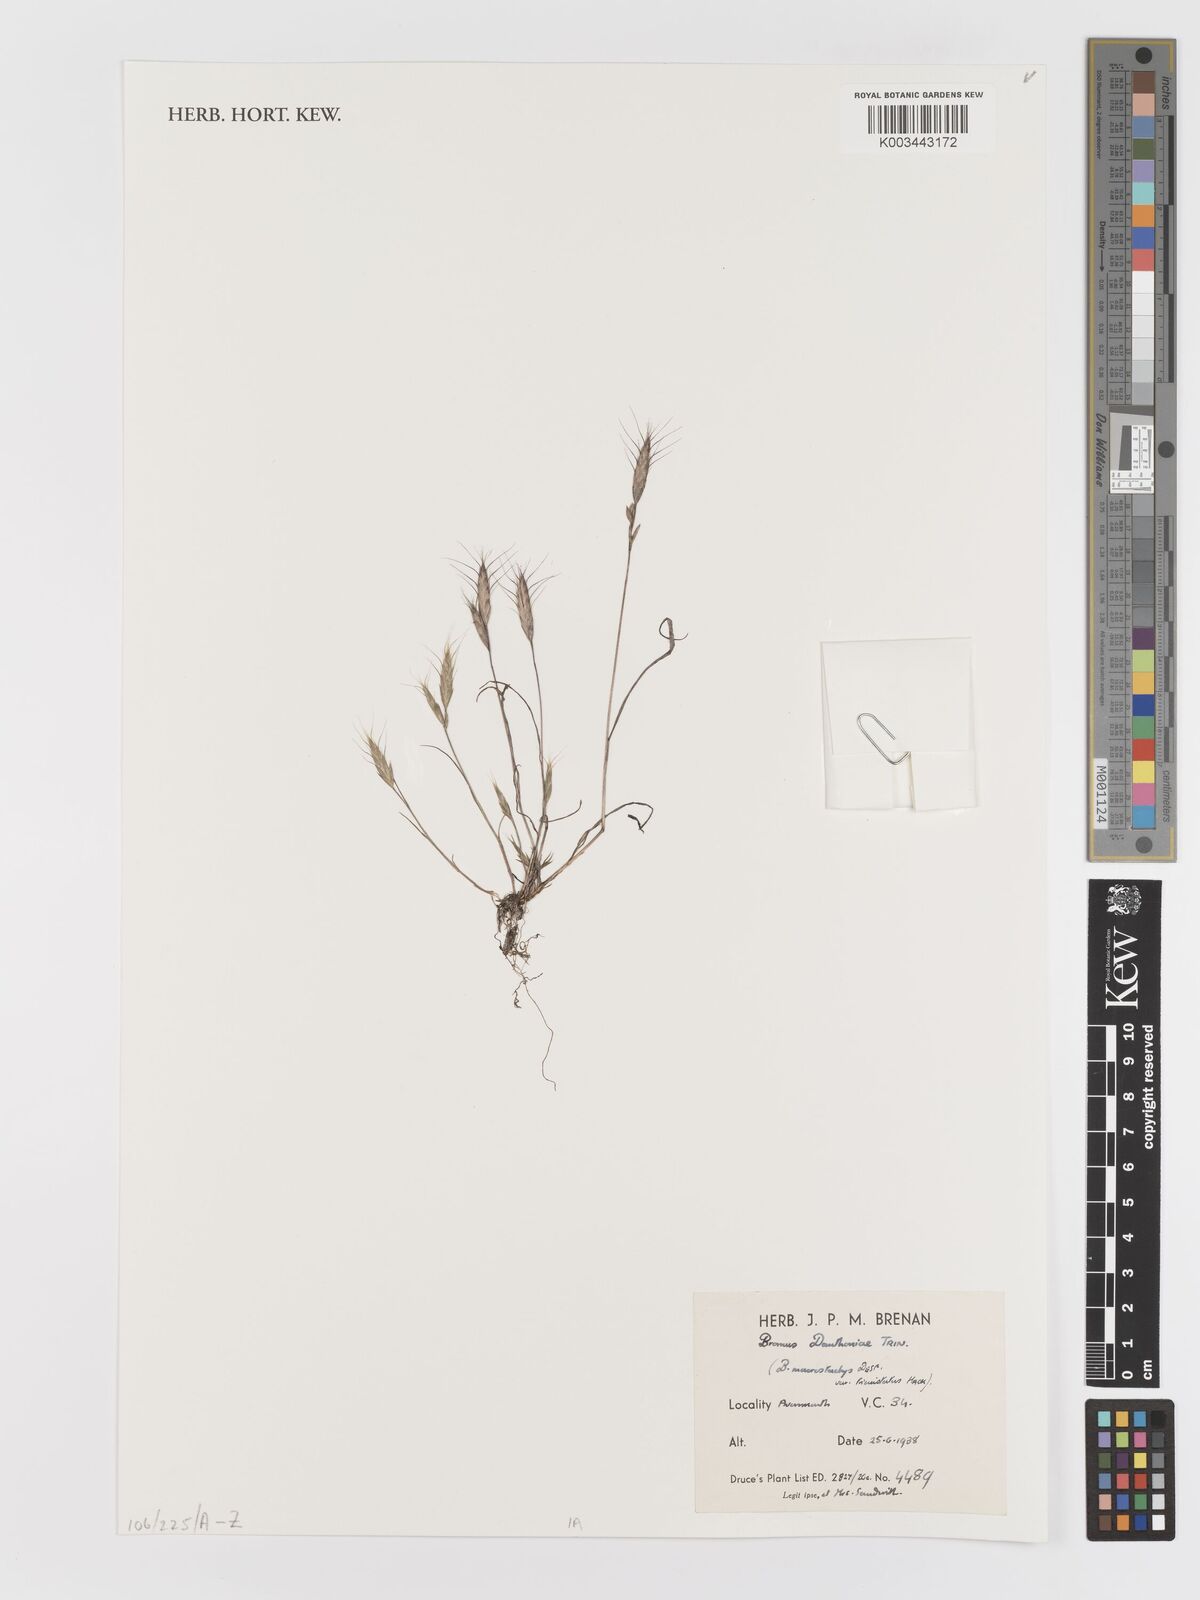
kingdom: Plantae
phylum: Tracheophyta
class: Liliopsida
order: Poales
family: Poaceae
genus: Bromus
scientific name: Bromus danthoniae
